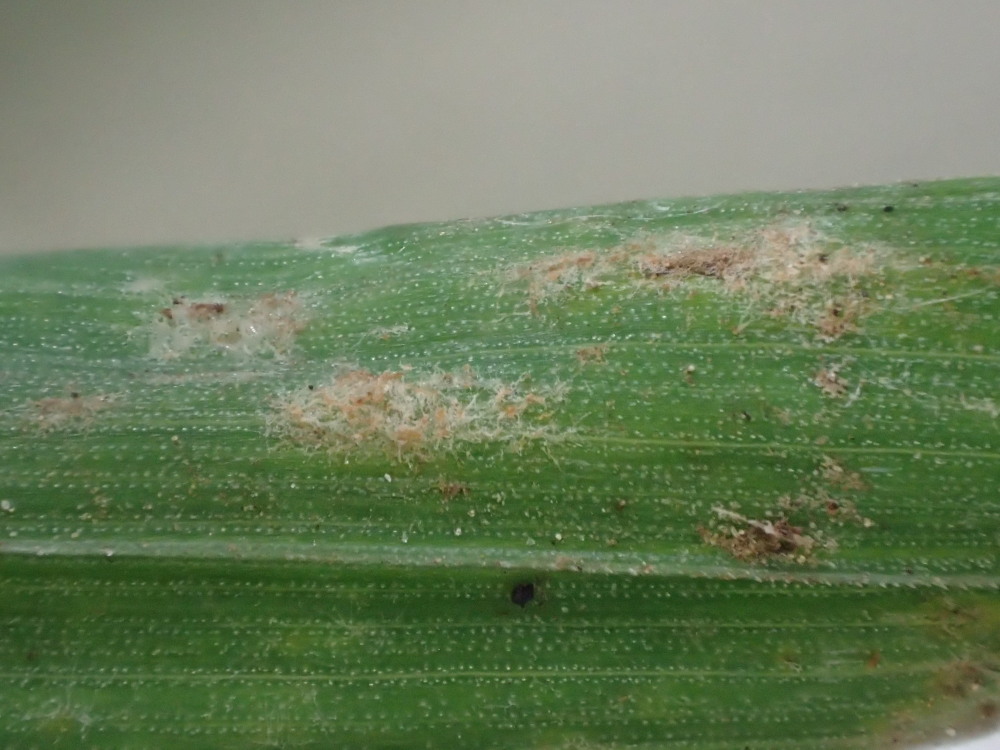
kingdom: Fungi
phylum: Ascomycota
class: Leotiomycetes
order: Helotiales
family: Erysiphaceae
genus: Blumeria
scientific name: Blumeria graminis
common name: græs-meldug
